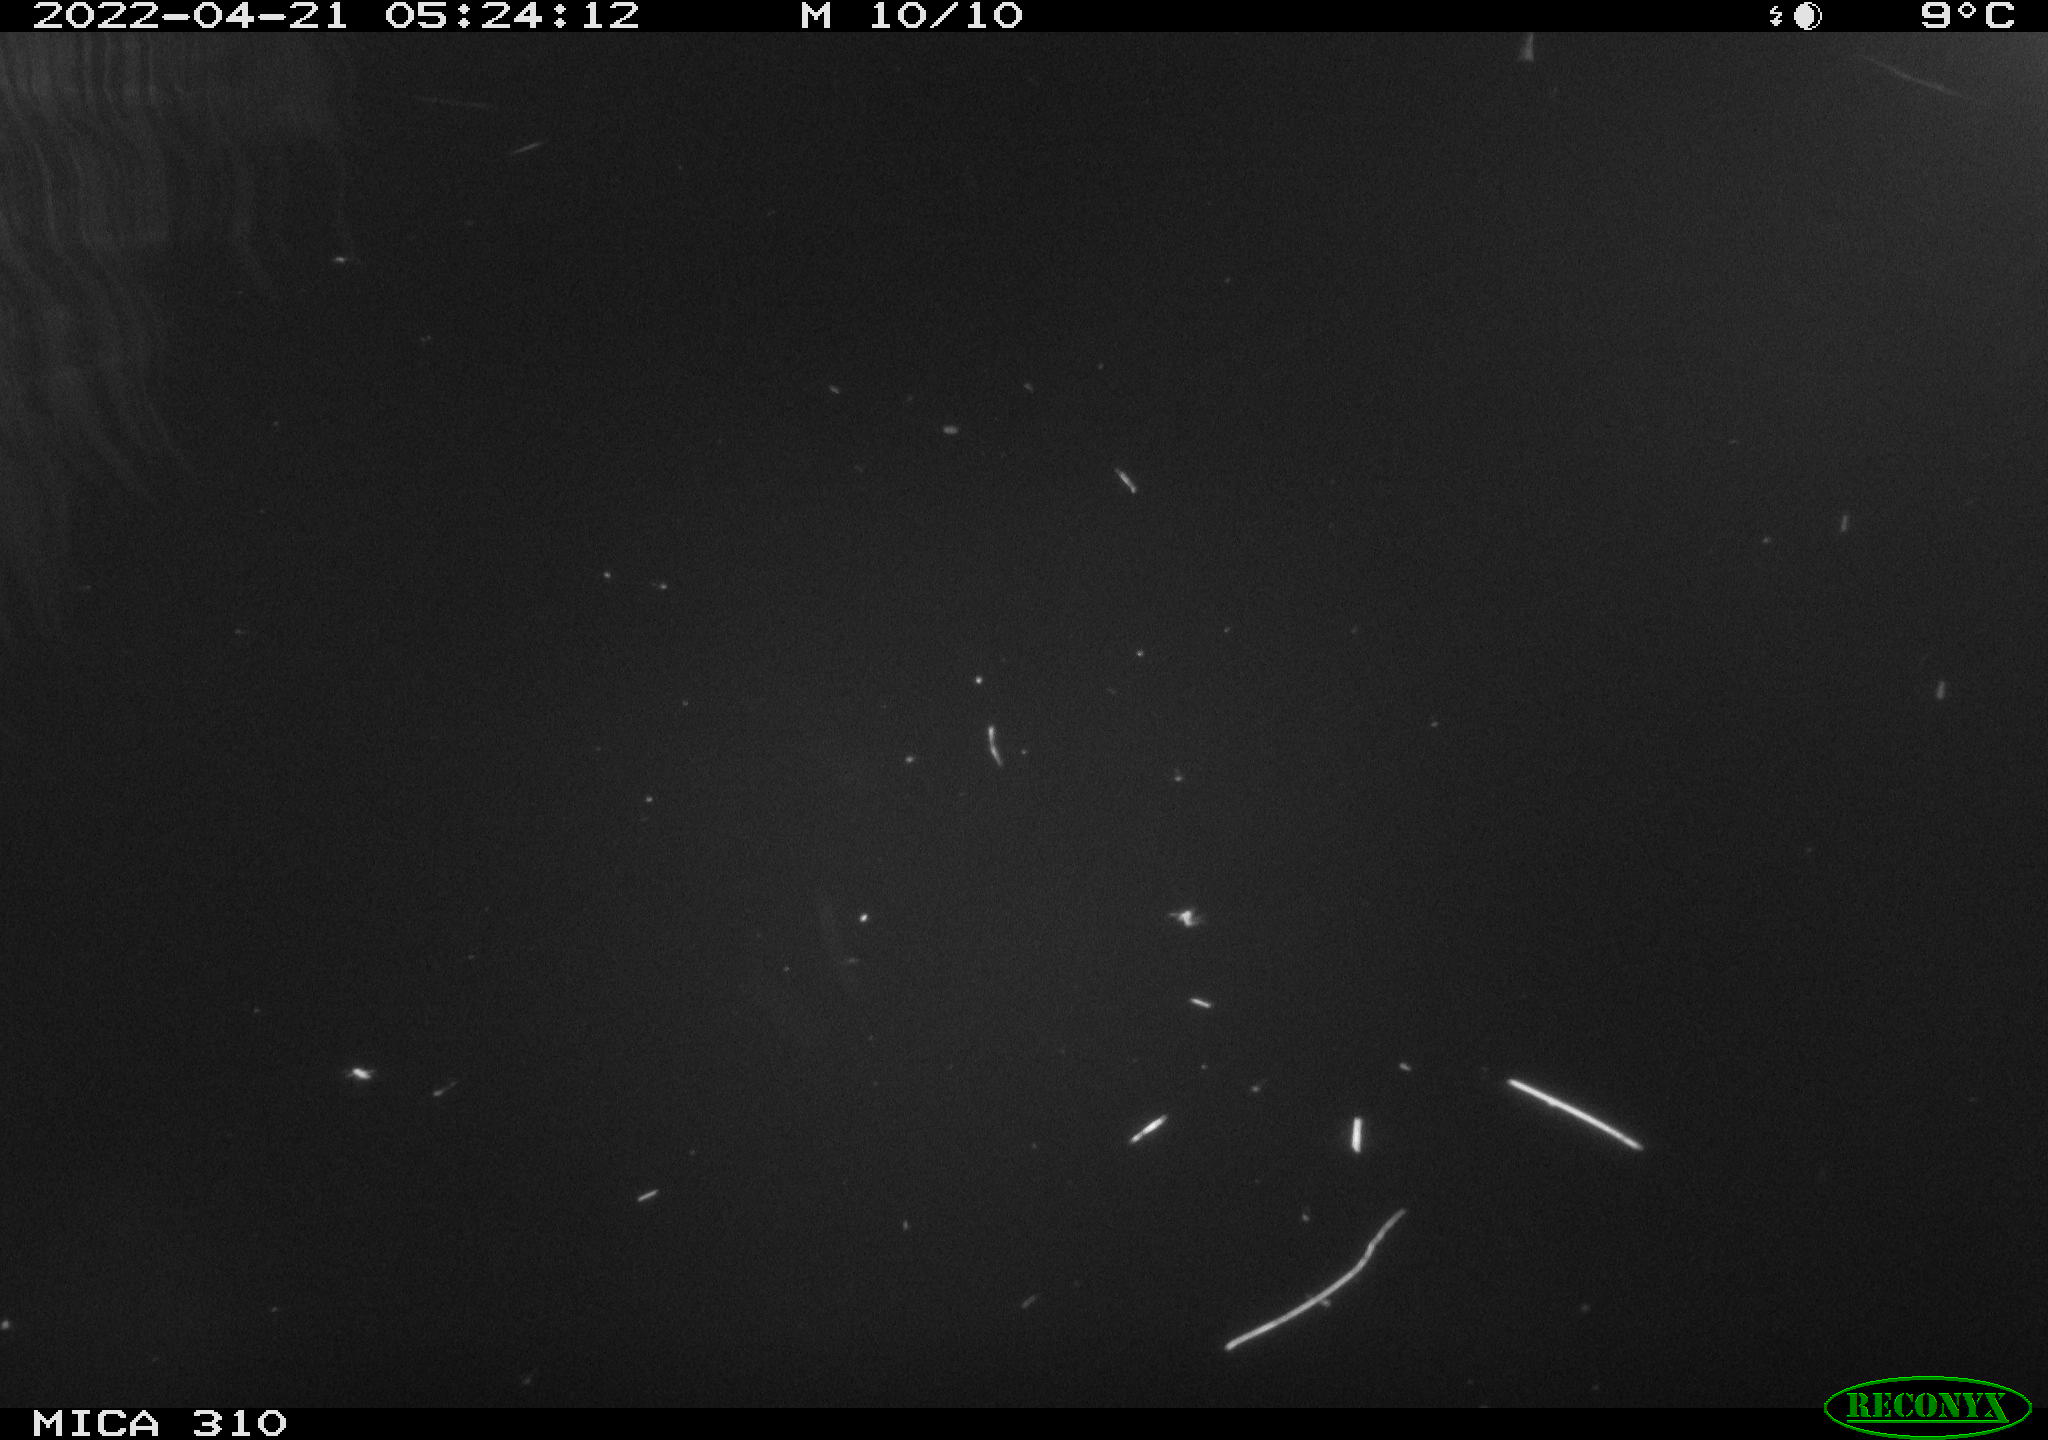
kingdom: Animalia
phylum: Chordata
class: Aves
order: Anseriformes
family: Anatidae
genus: Anas
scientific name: Anas platyrhynchos
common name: Mallard
